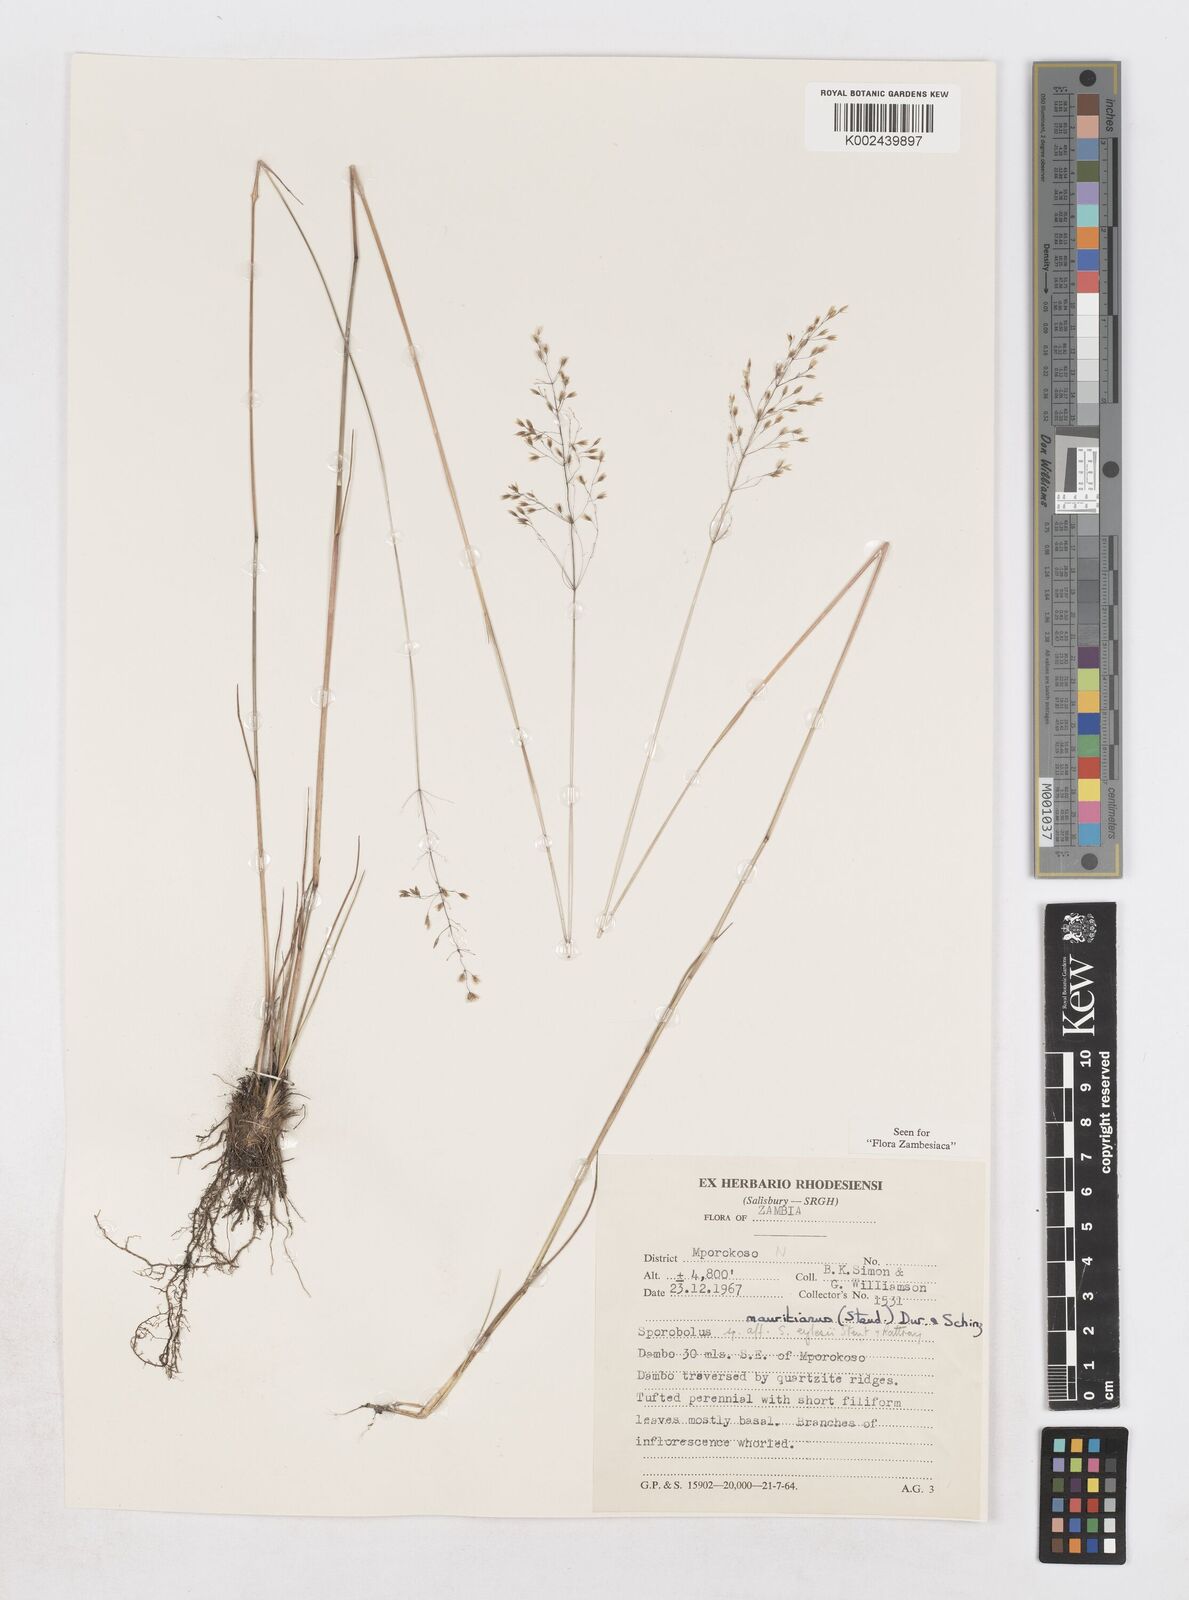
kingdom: Plantae
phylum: Tracheophyta
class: Liliopsida
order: Poales
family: Poaceae
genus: Sporobolus
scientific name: Sporobolus subulatus
